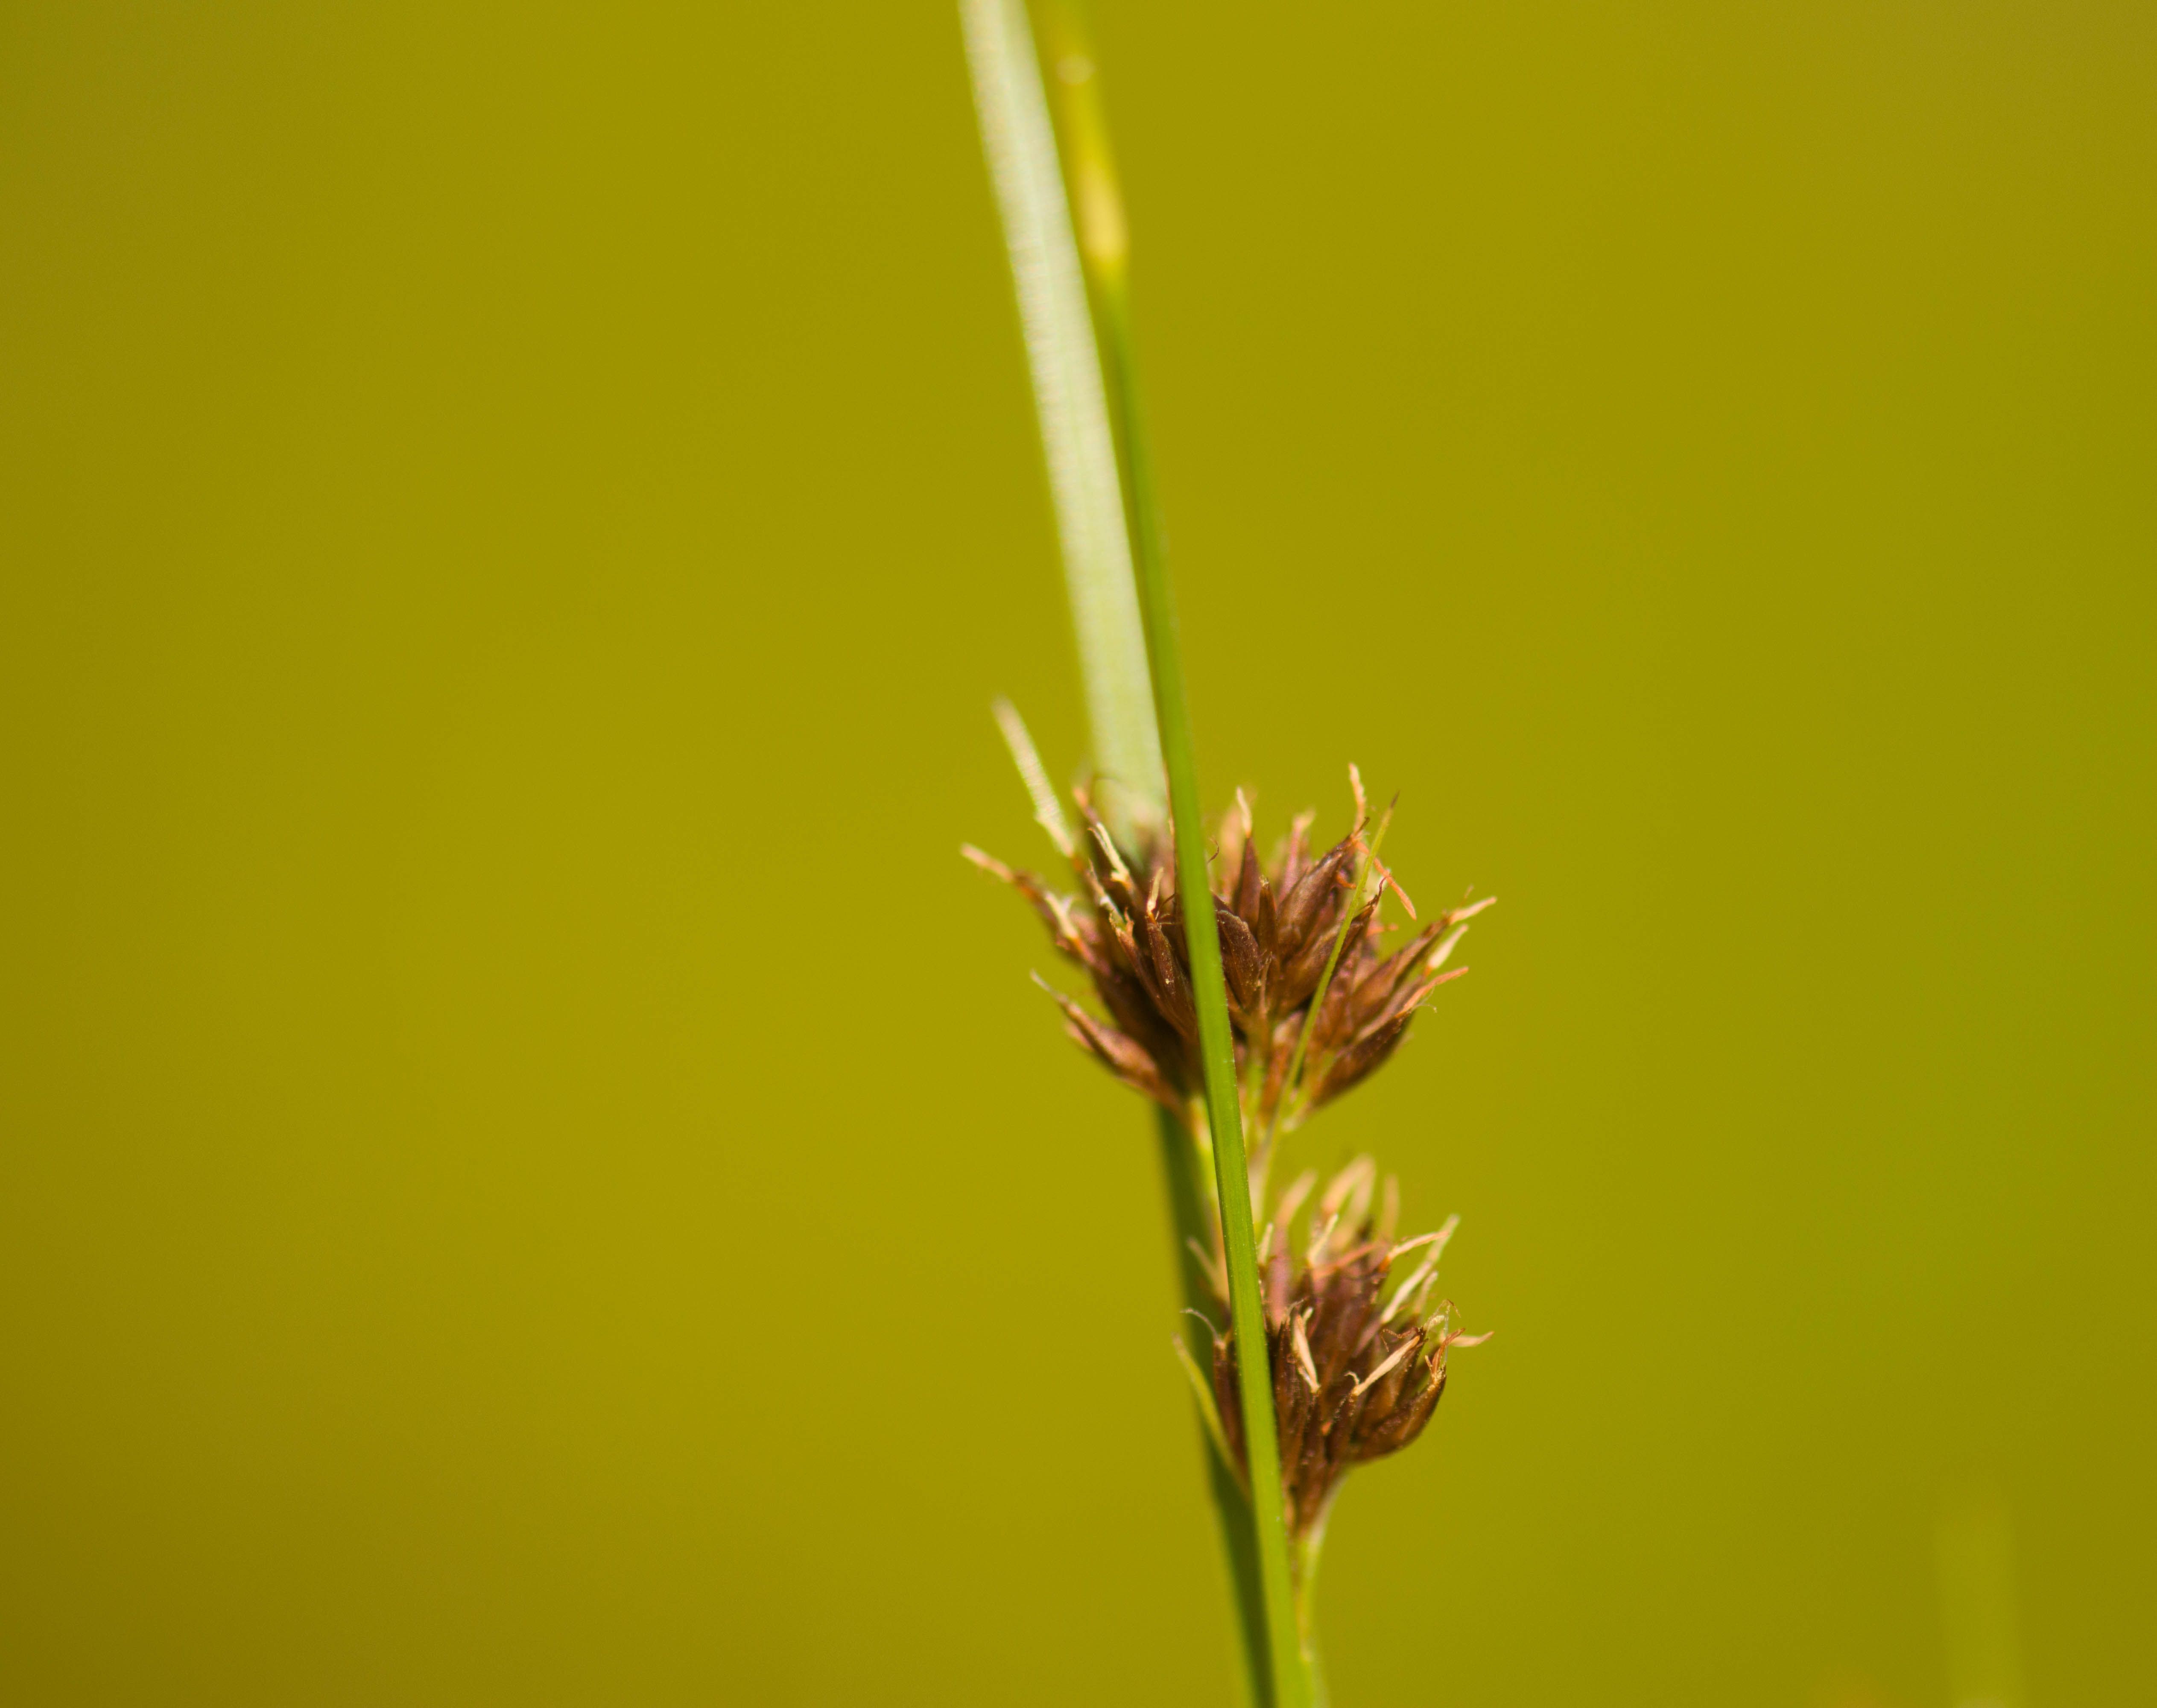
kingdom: Plantae
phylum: Tracheophyta
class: Liliopsida
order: Poales
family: Cyperaceae
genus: Rhynchospora
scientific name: Rhynchospora capitellata
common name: Brownish beaksedge
